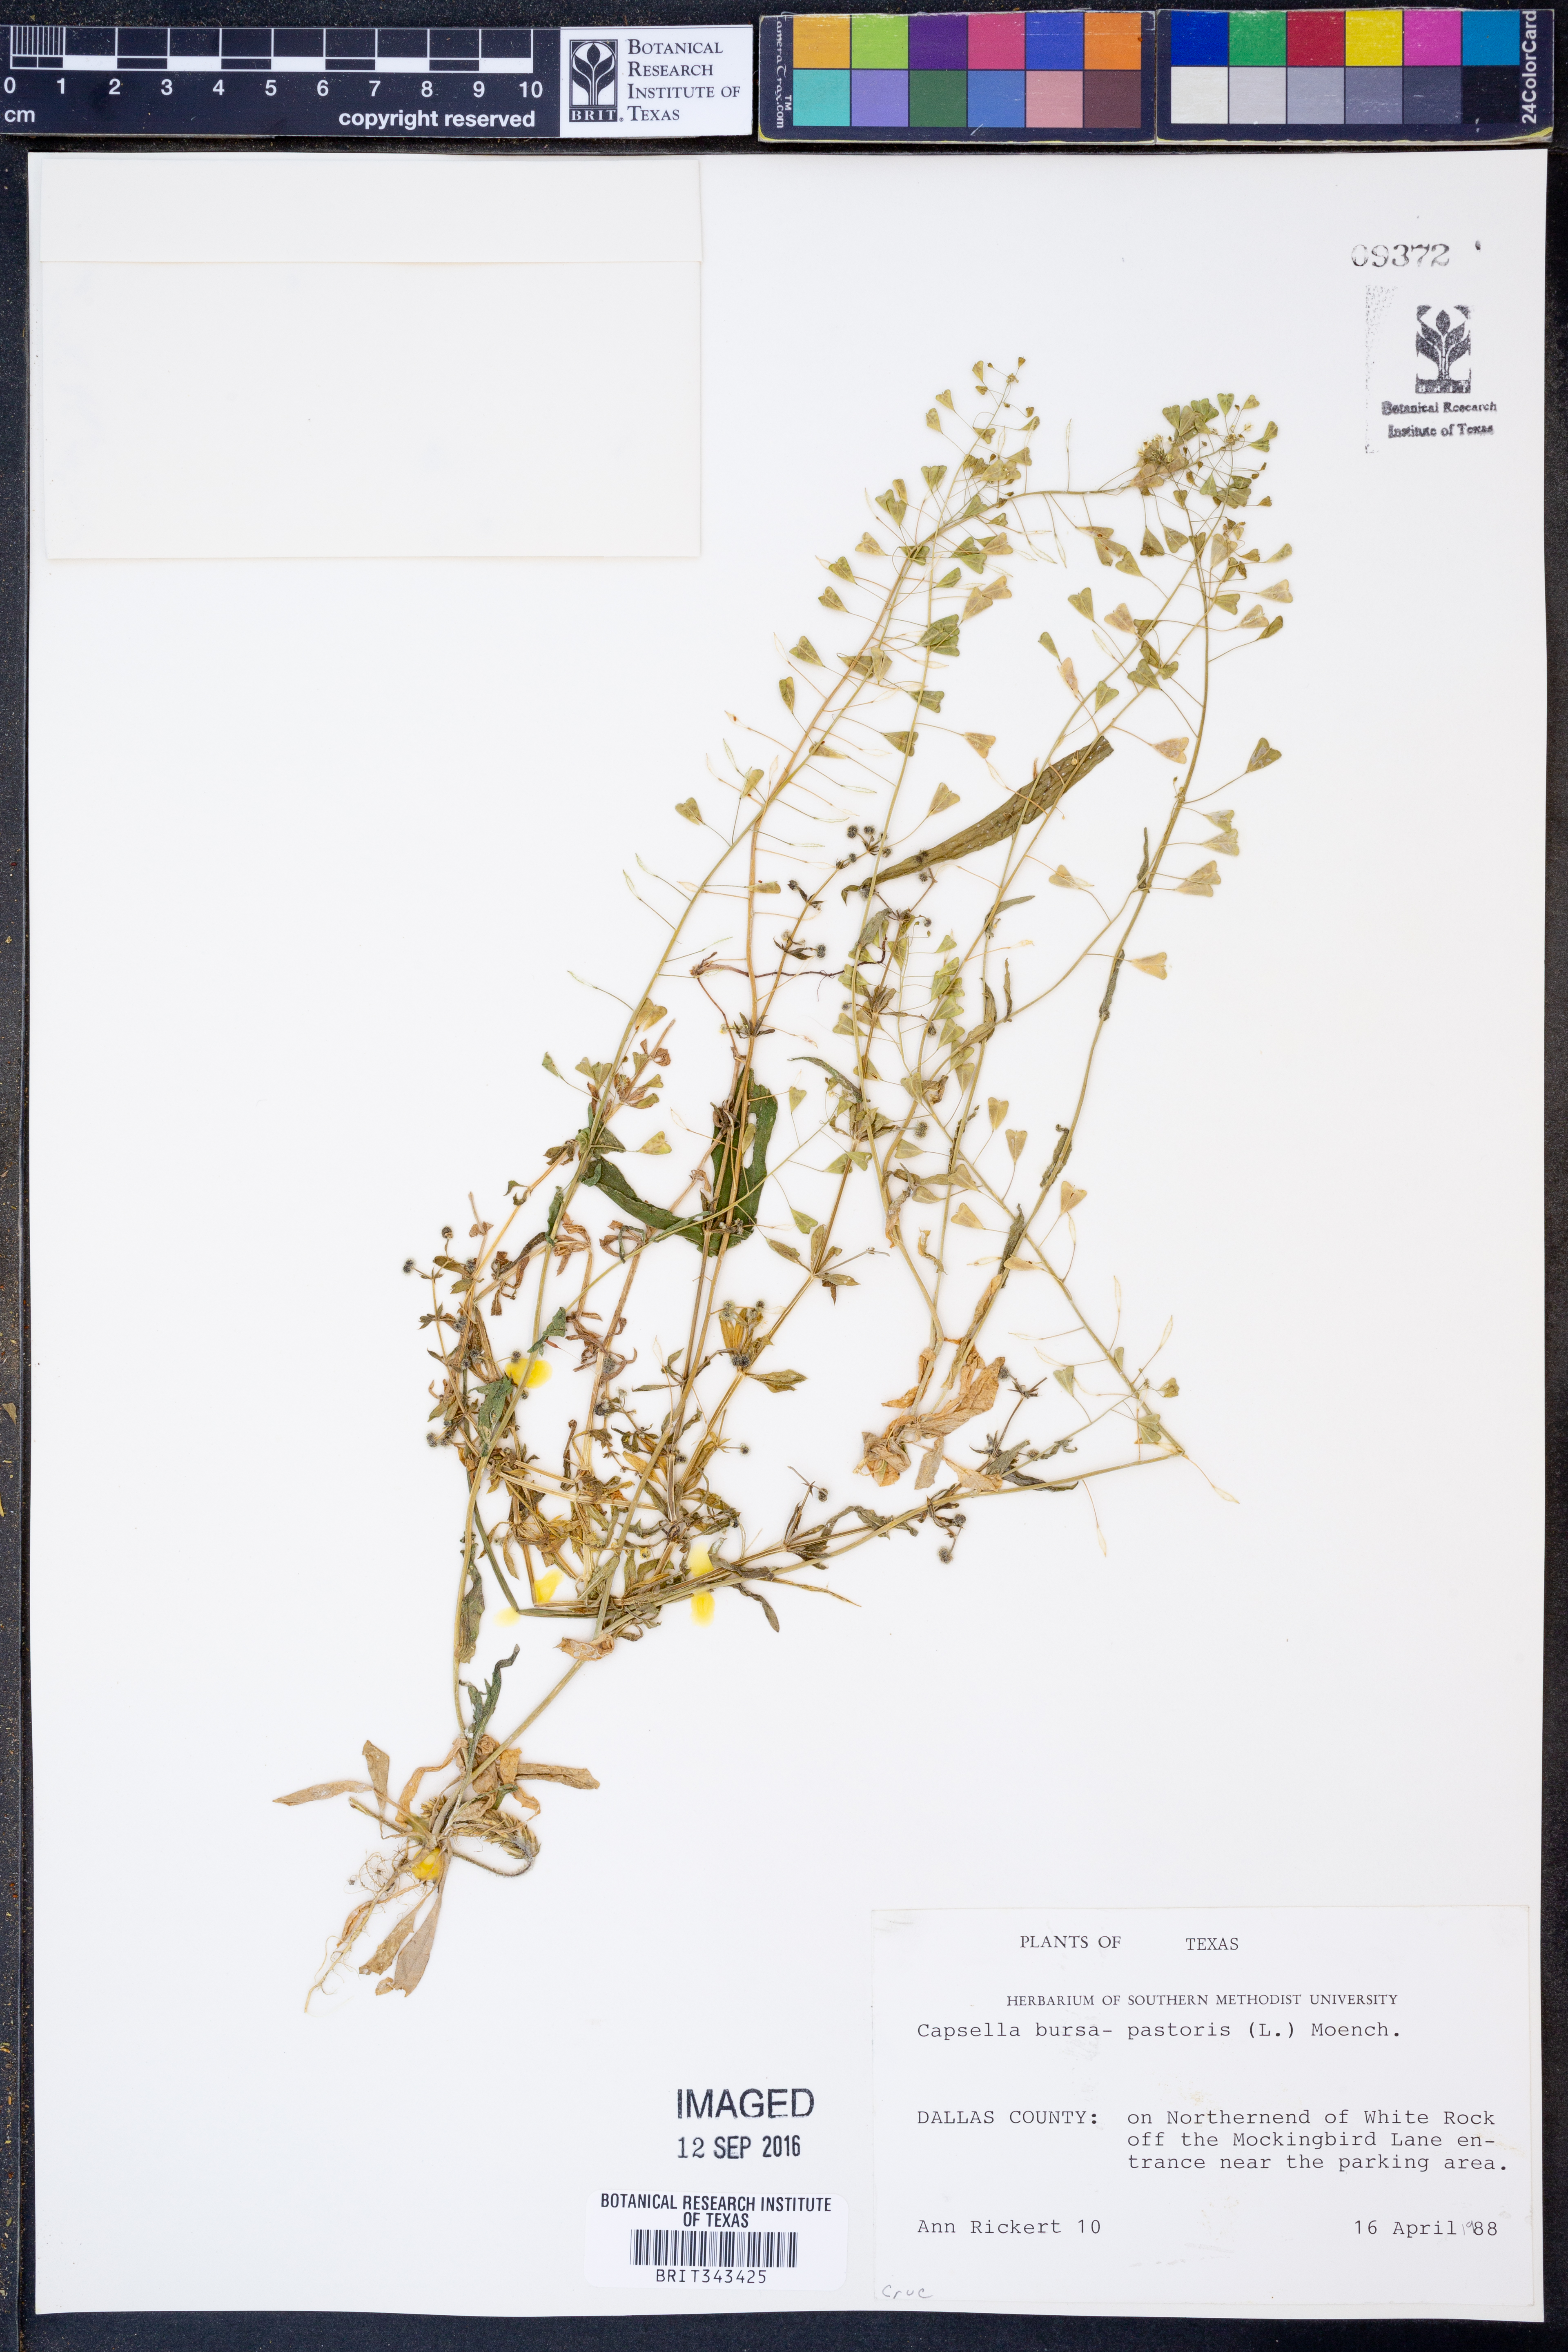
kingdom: Plantae
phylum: Tracheophyta
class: Magnoliopsida
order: Brassicales
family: Brassicaceae
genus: Capsella
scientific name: Capsella bursa-pastoris
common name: Shepherd's purse
